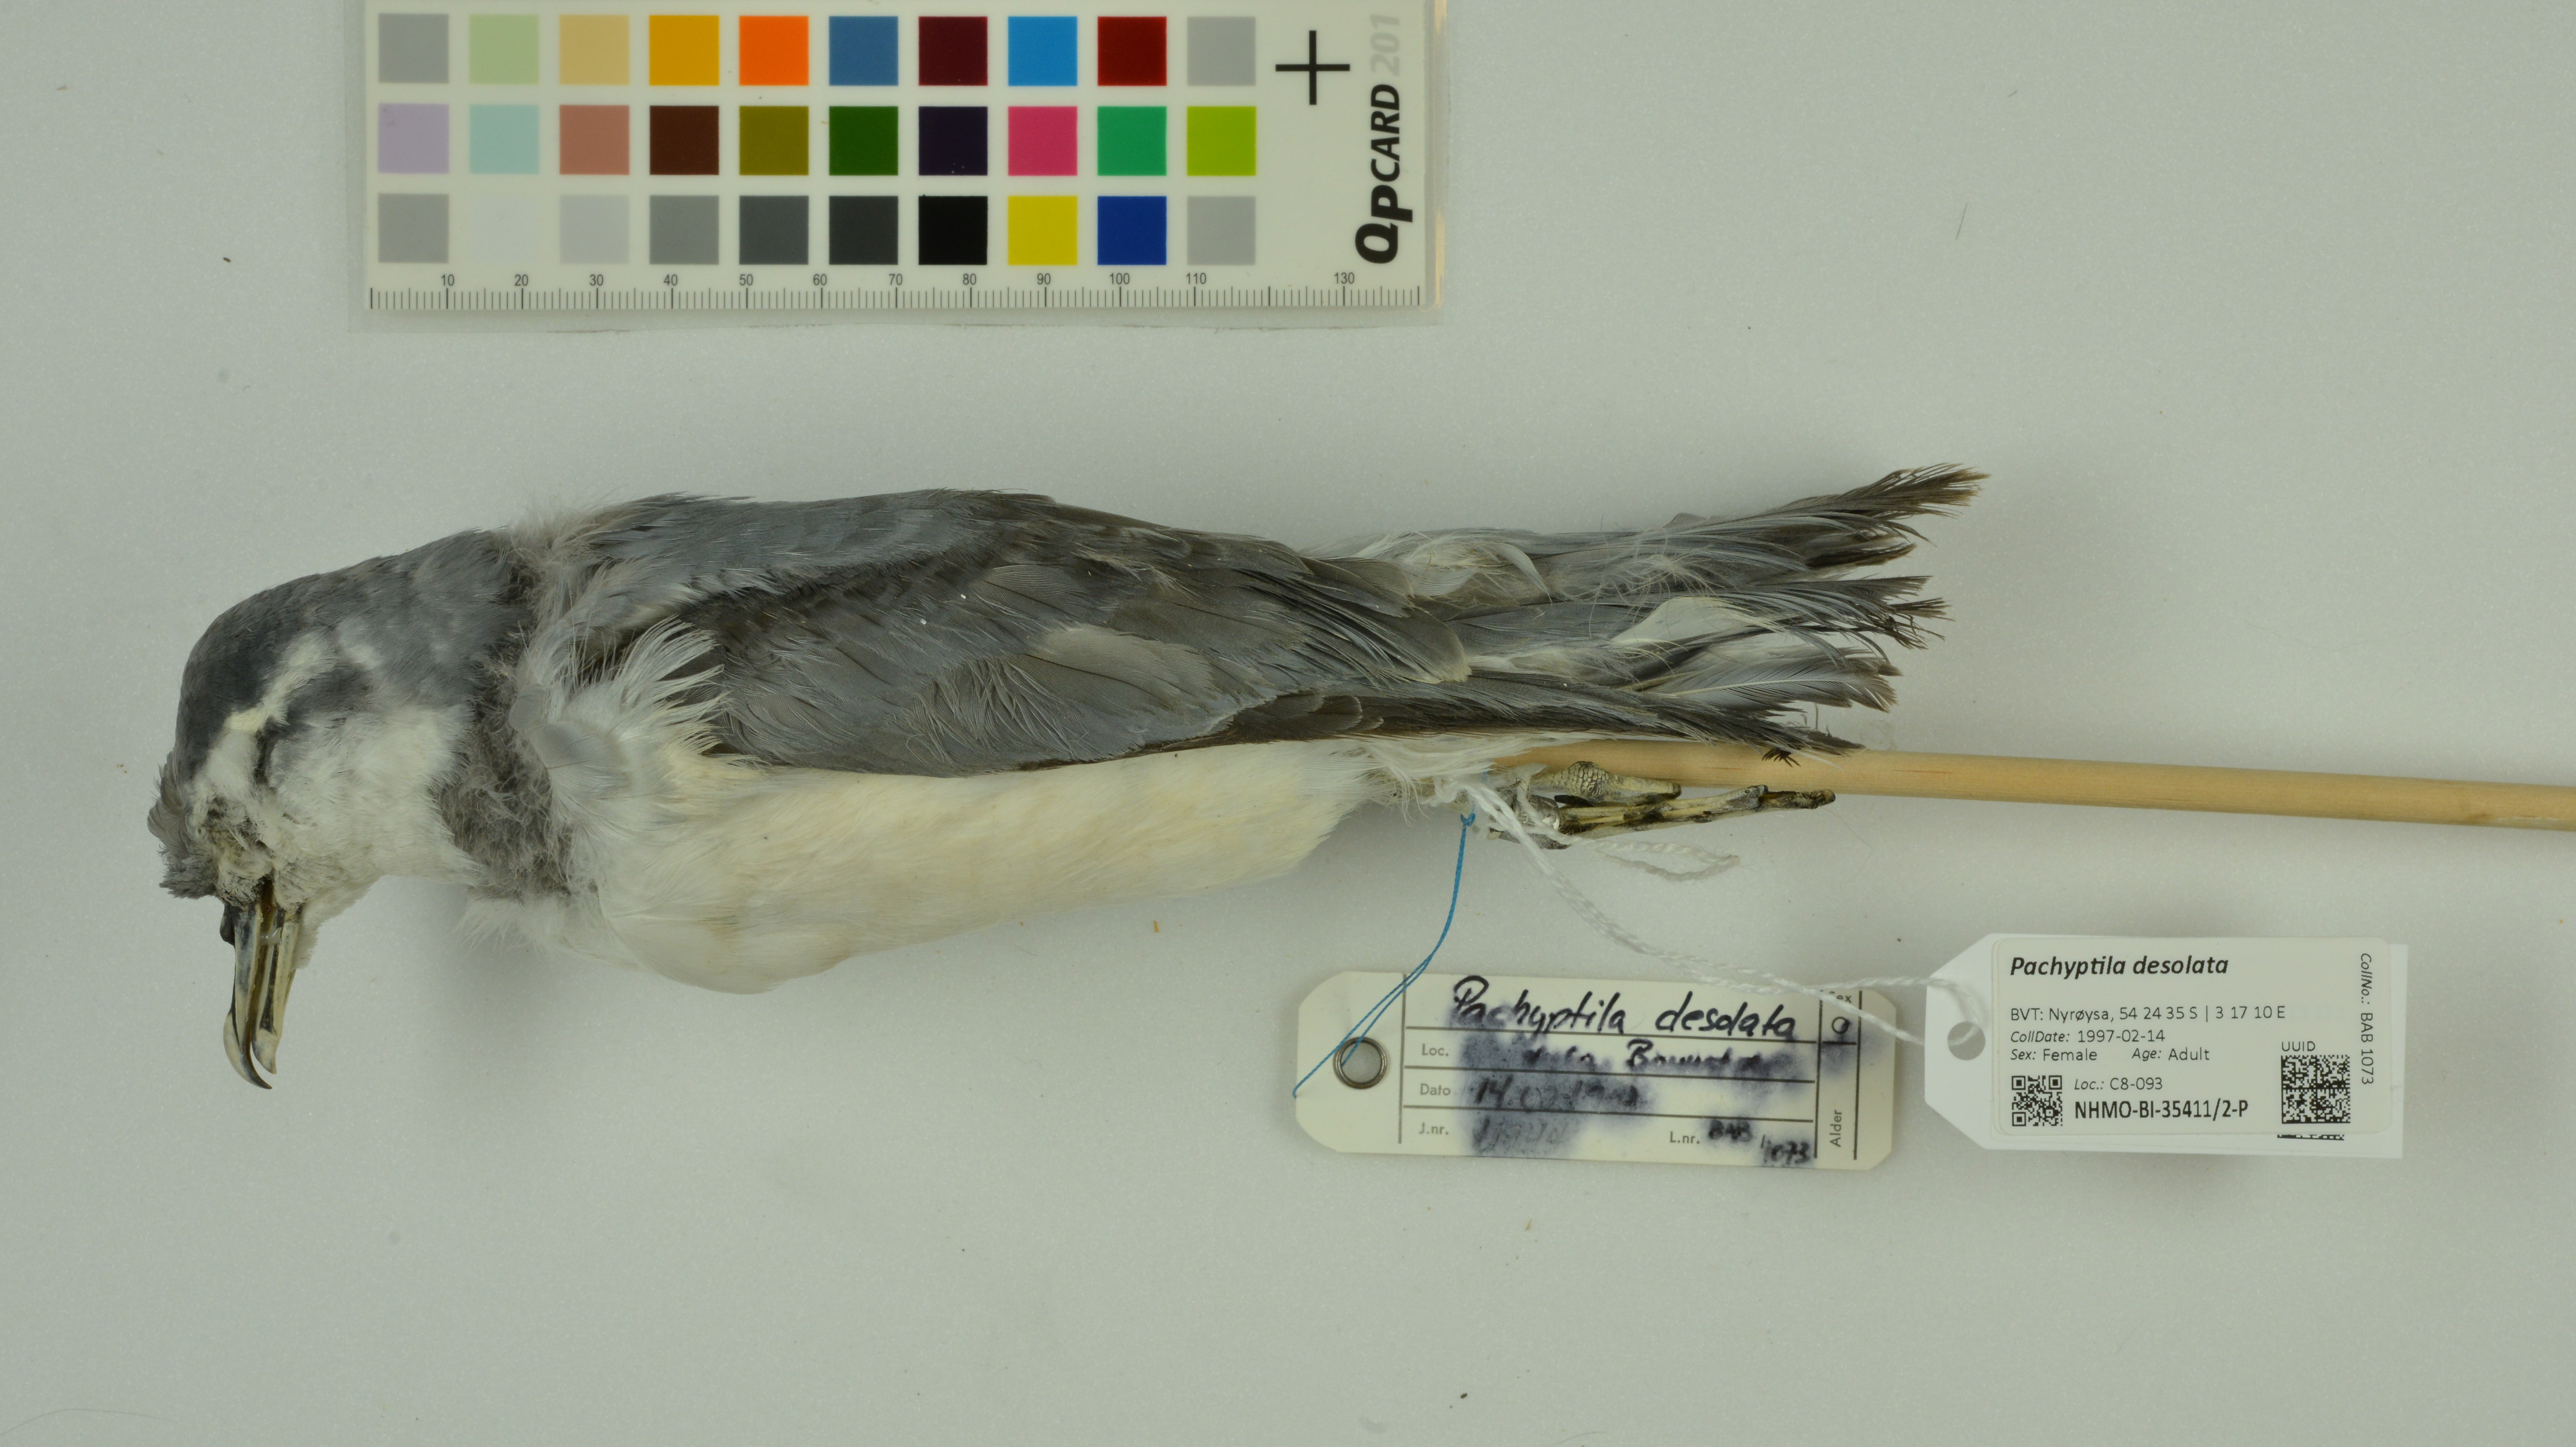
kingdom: Animalia
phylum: Chordata
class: Aves
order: Procellariiformes
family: Procellariidae
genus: Pachyptila
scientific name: Pachyptila desolata
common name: Antarctic prion
